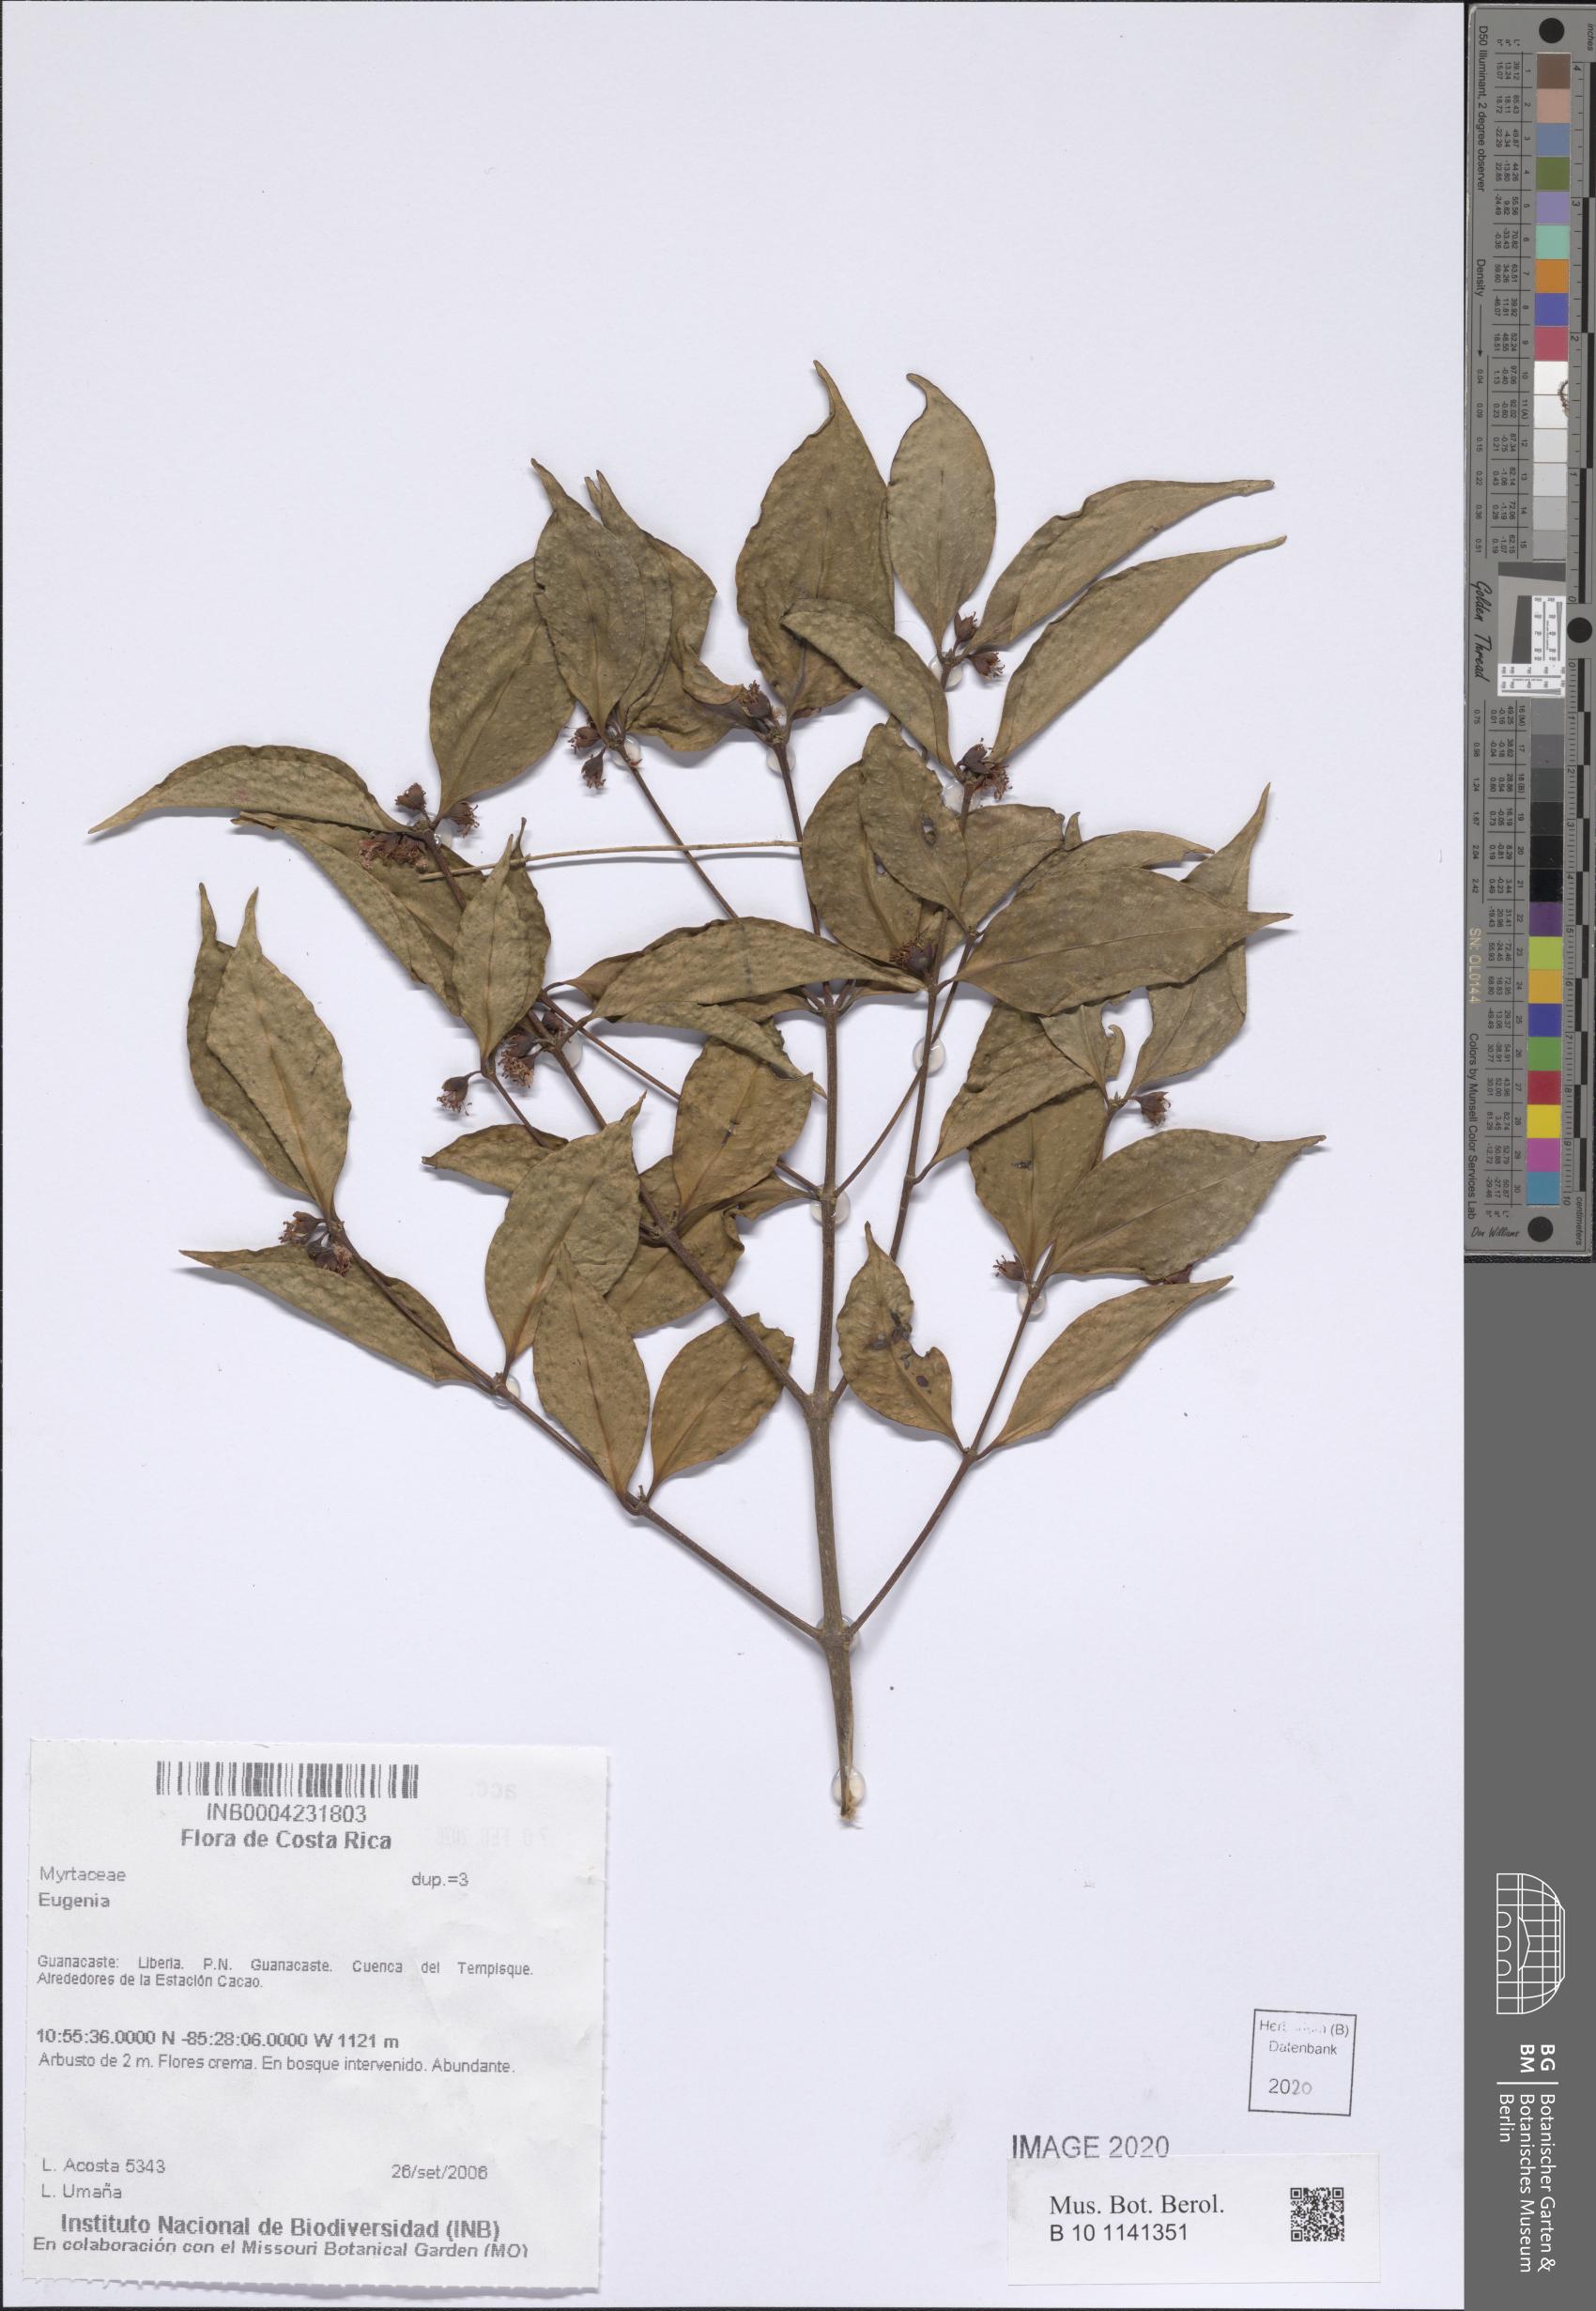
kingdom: Plantae
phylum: Tracheophyta
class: Magnoliopsida
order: Myrtales
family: Myrtaceae
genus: Eugenia
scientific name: Eugenia
